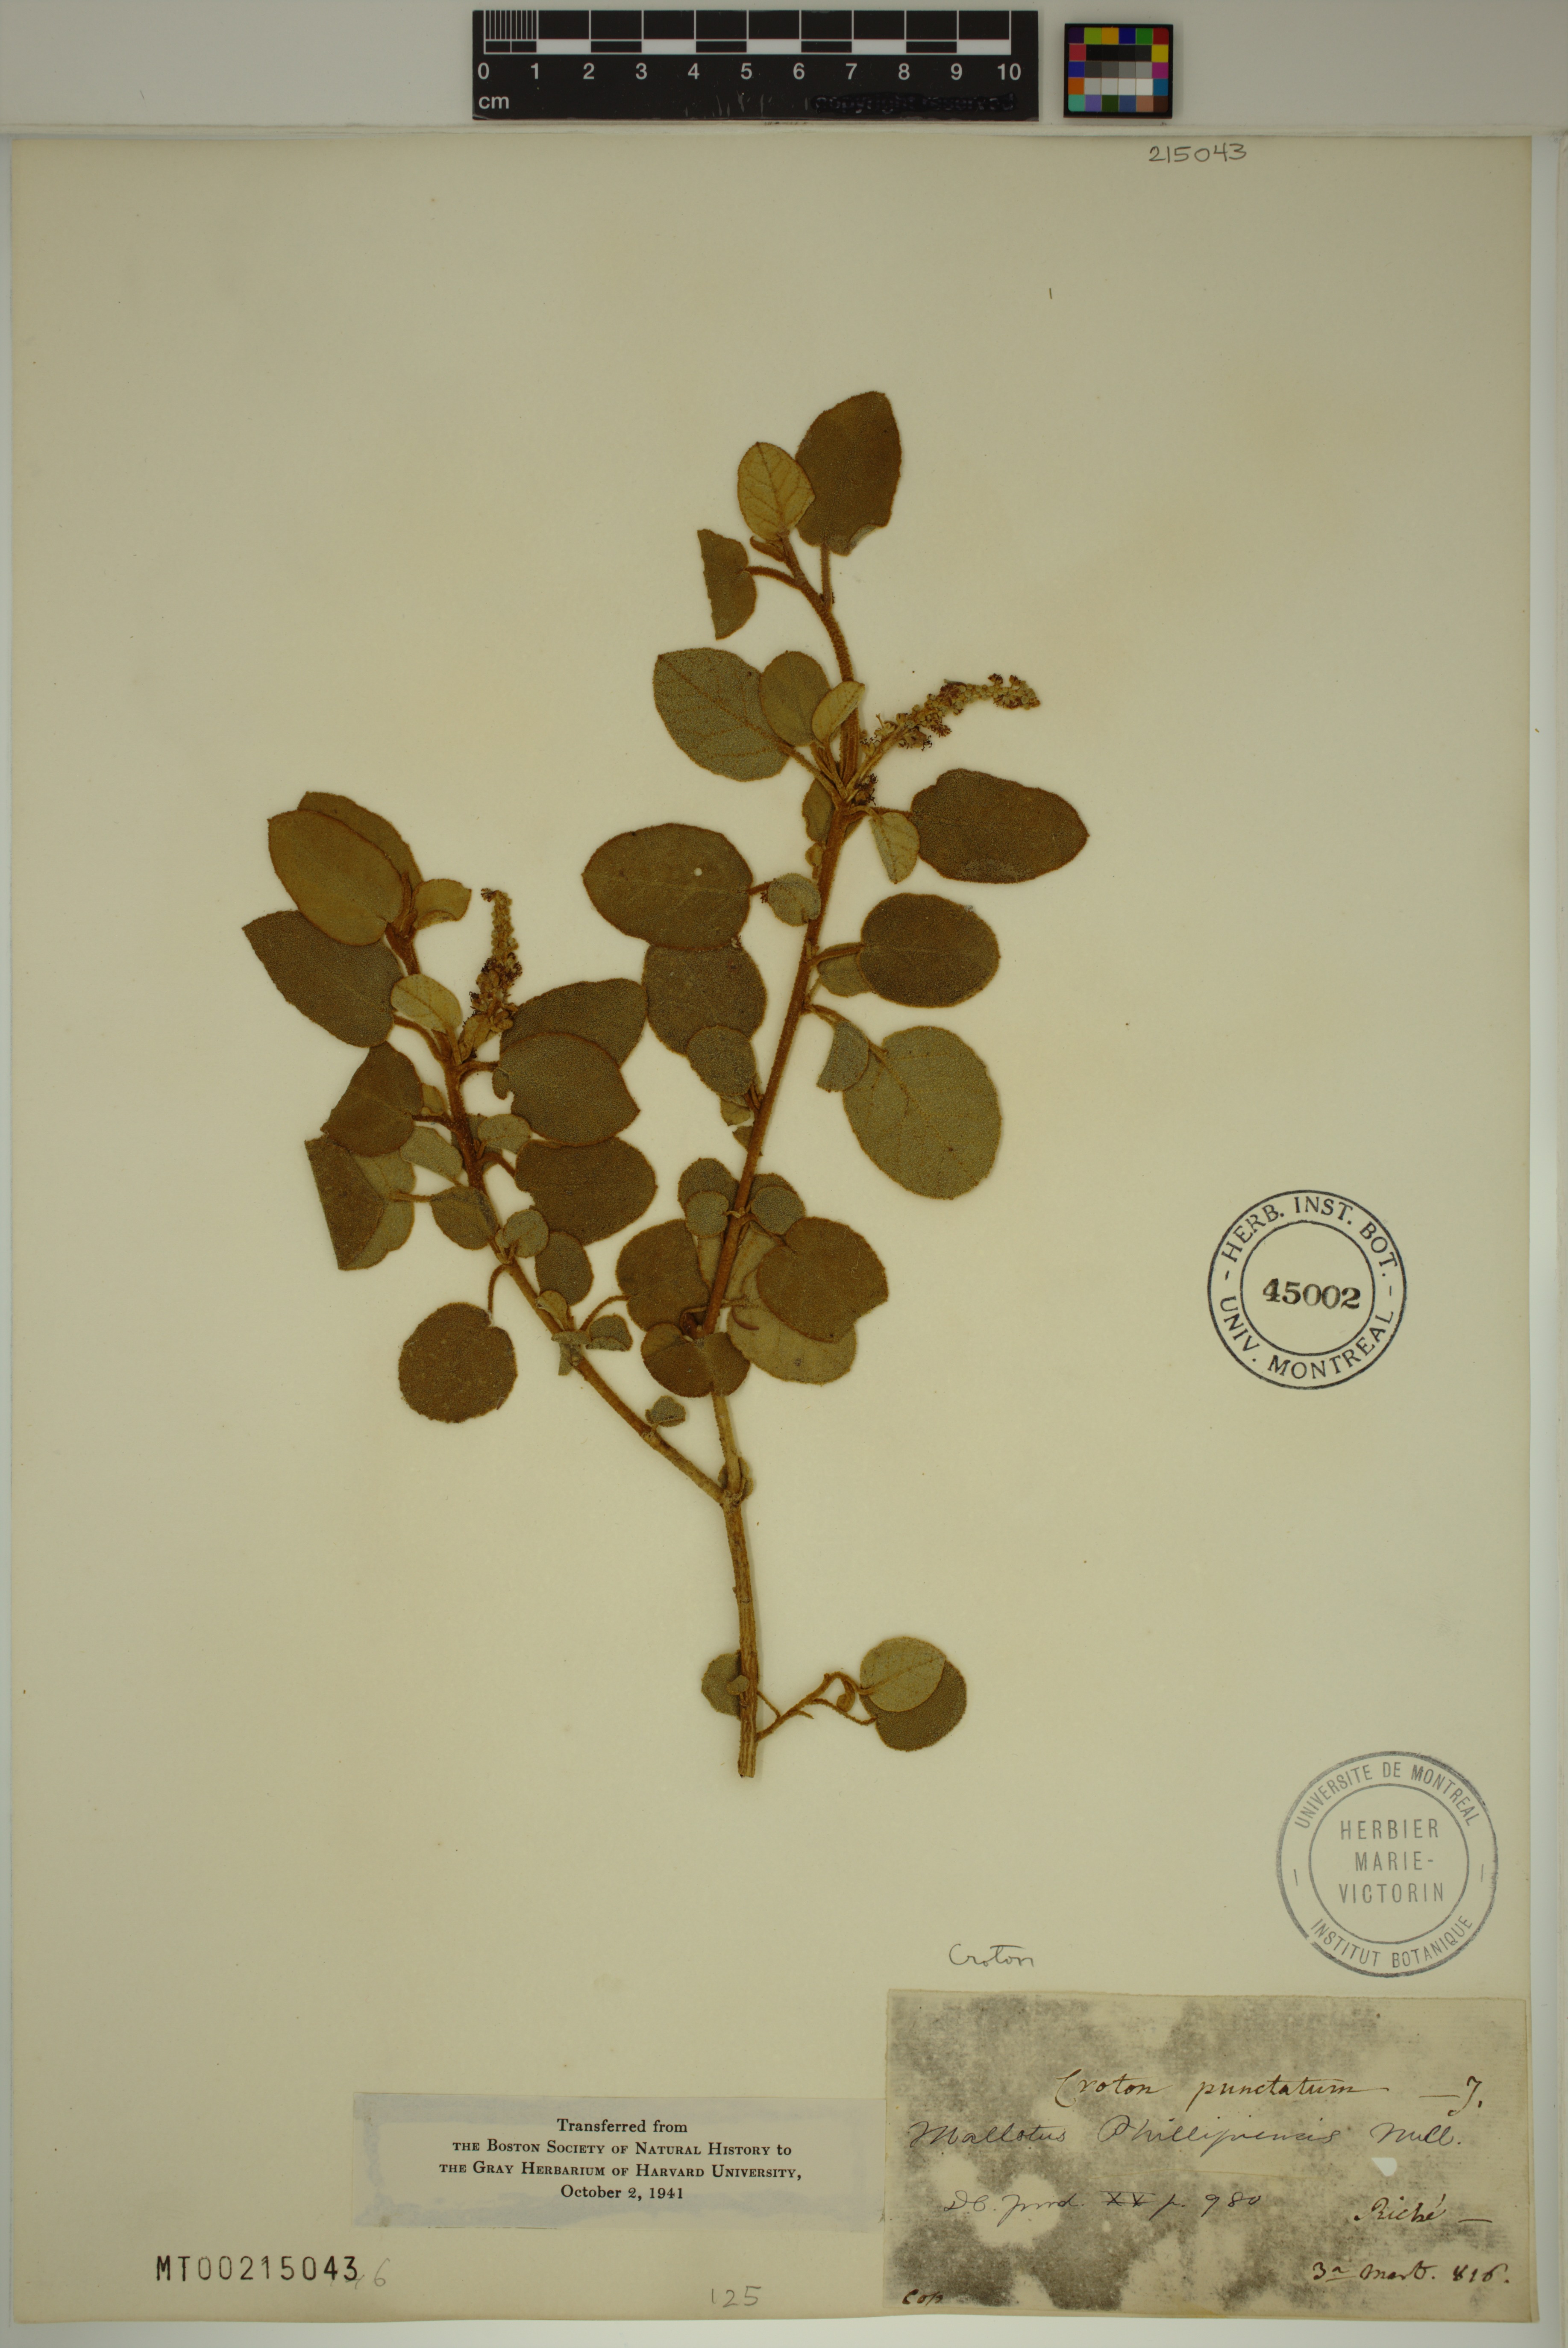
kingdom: Plantae
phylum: Tracheophyta
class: Magnoliopsida
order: Malpighiales
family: Euphorbiaceae
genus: Mallotus
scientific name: Mallotus philippensis
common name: Kamala tree
